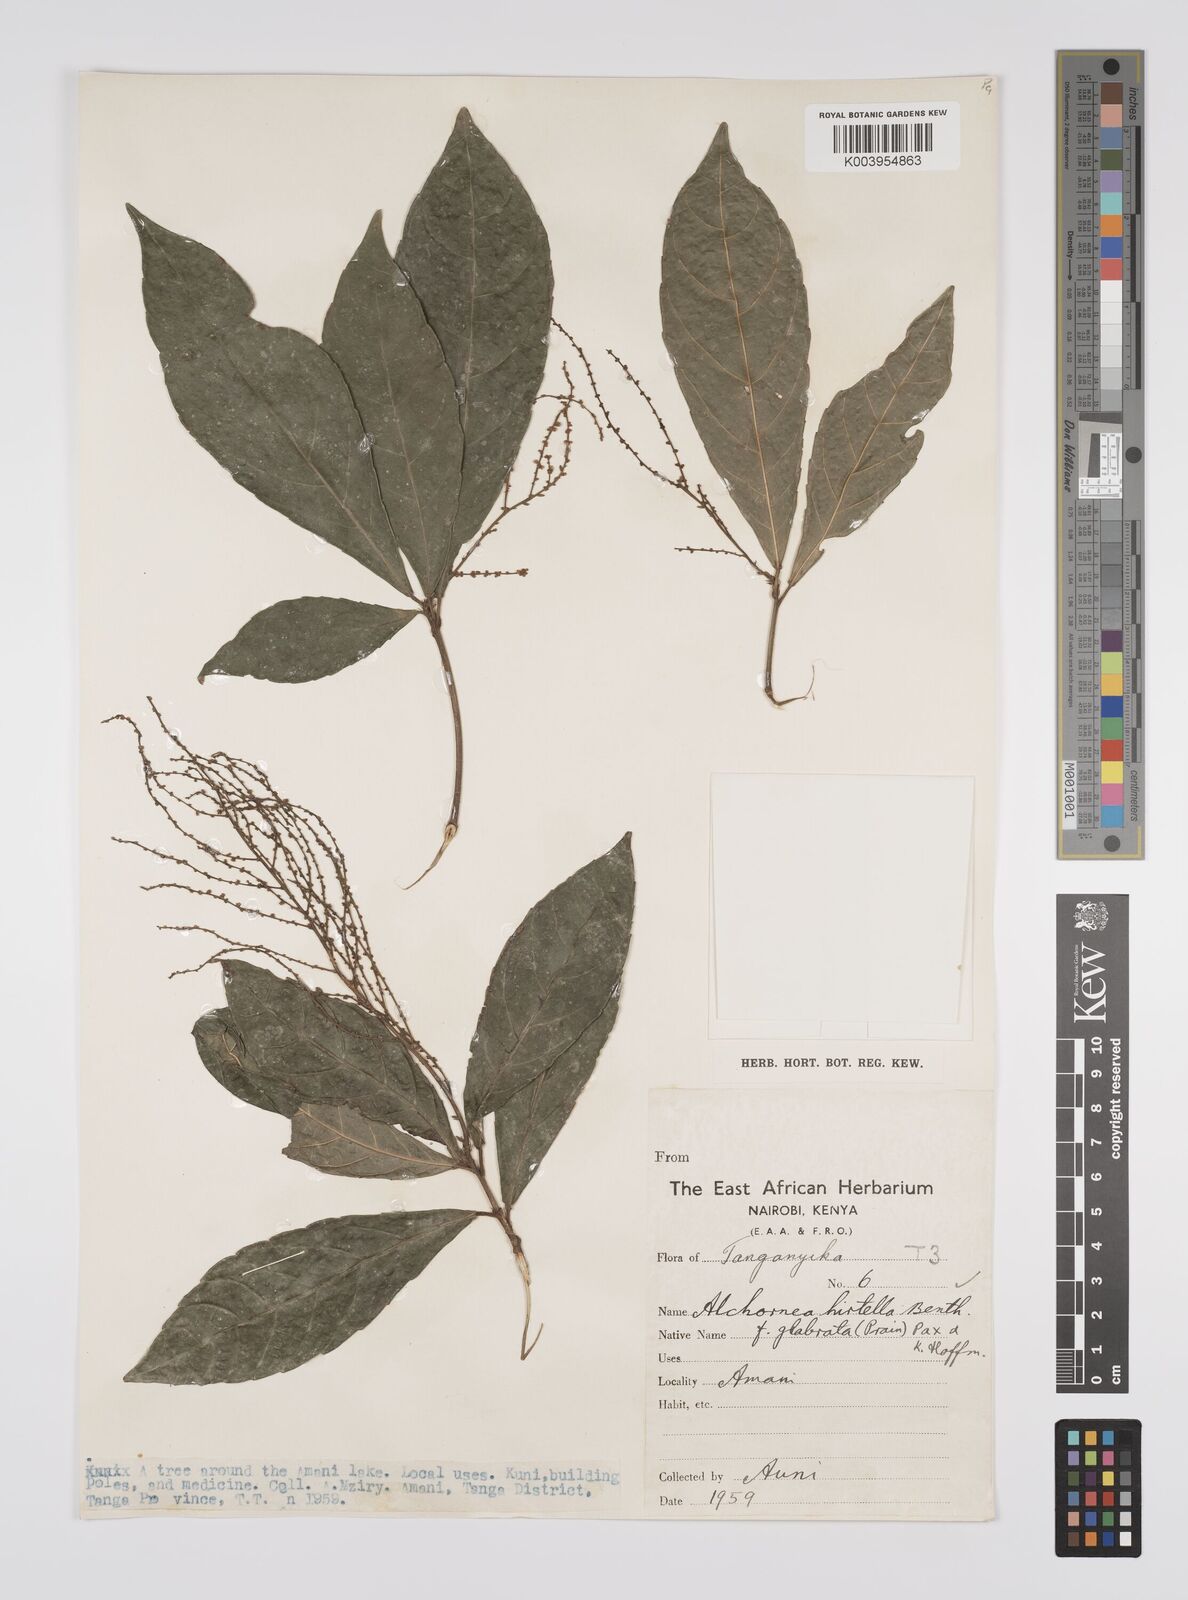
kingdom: Plantae
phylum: Tracheophyta
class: Magnoliopsida
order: Malpighiales
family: Euphorbiaceae
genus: Alchornea
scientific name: Alchornea hirtella
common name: Forest bead-string
